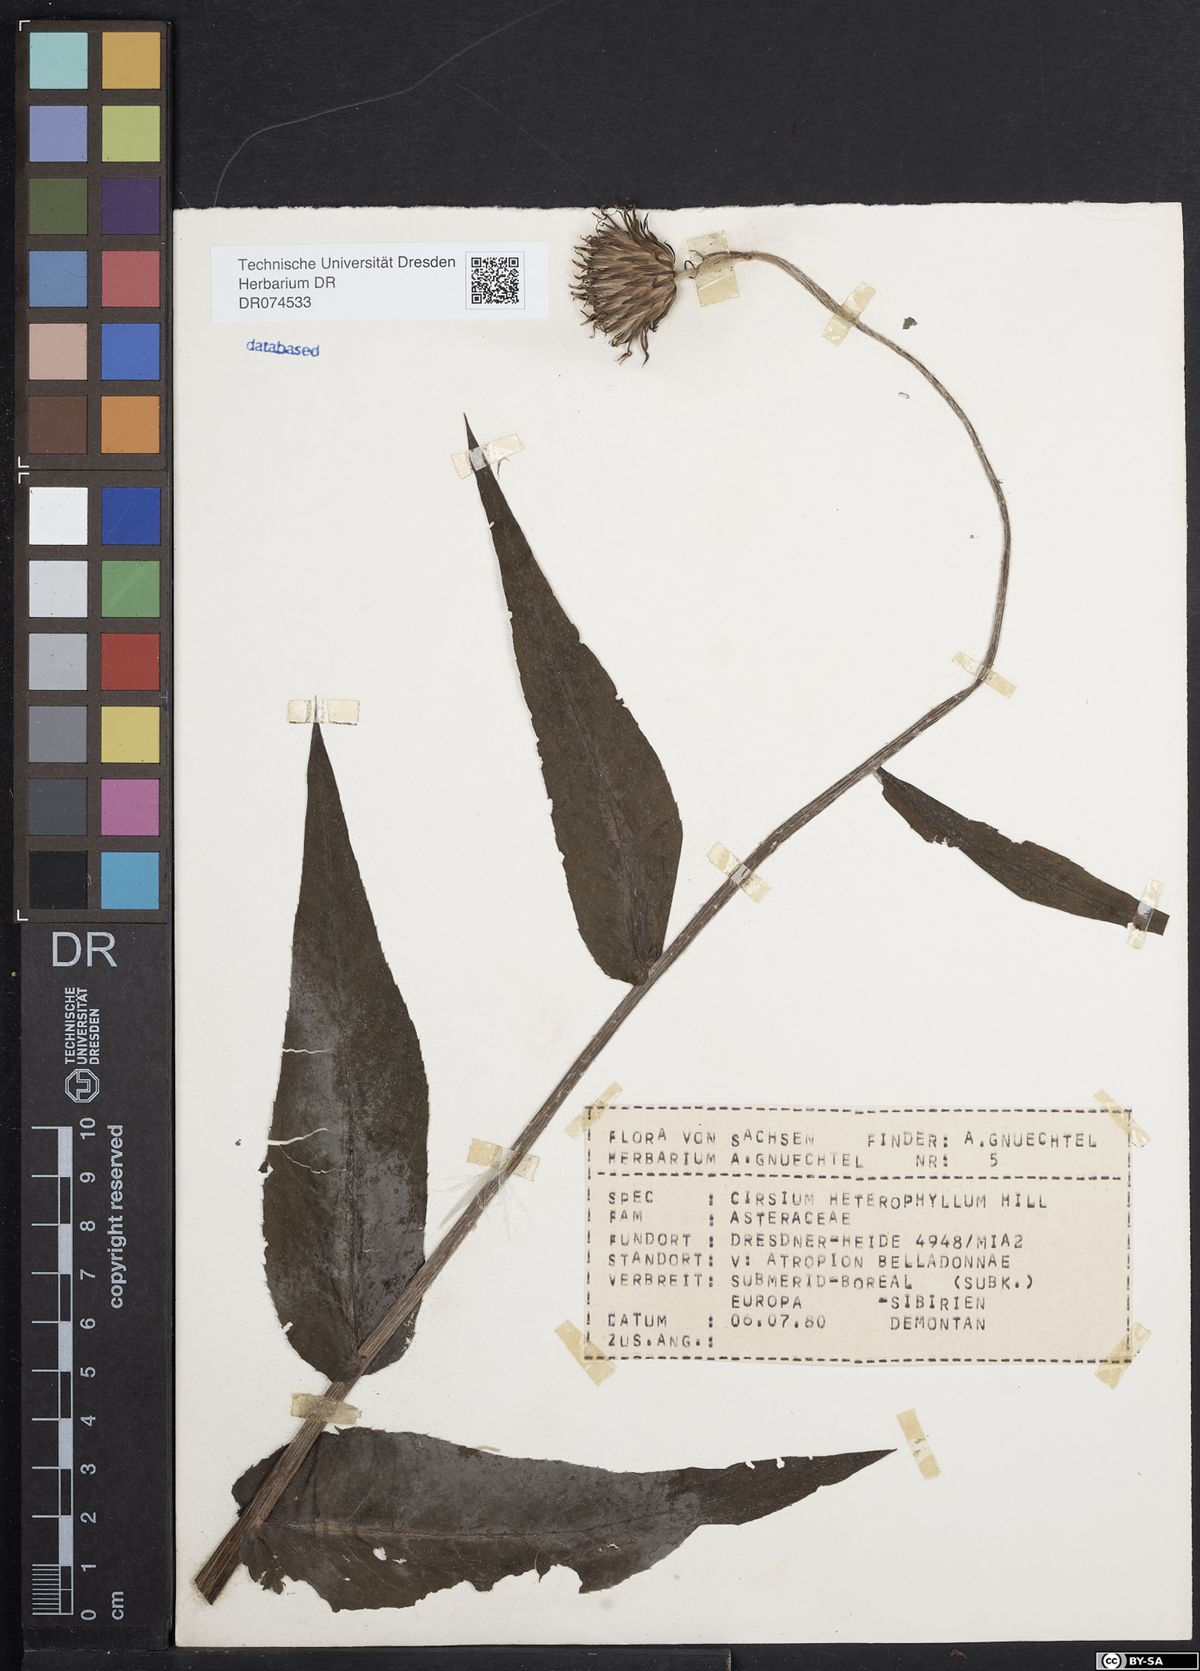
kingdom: Plantae
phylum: Tracheophyta
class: Magnoliopsida
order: Asterales
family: Asteraceae
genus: Cirsium
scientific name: Cirsium heterophyllum
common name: Melancholy thistle
